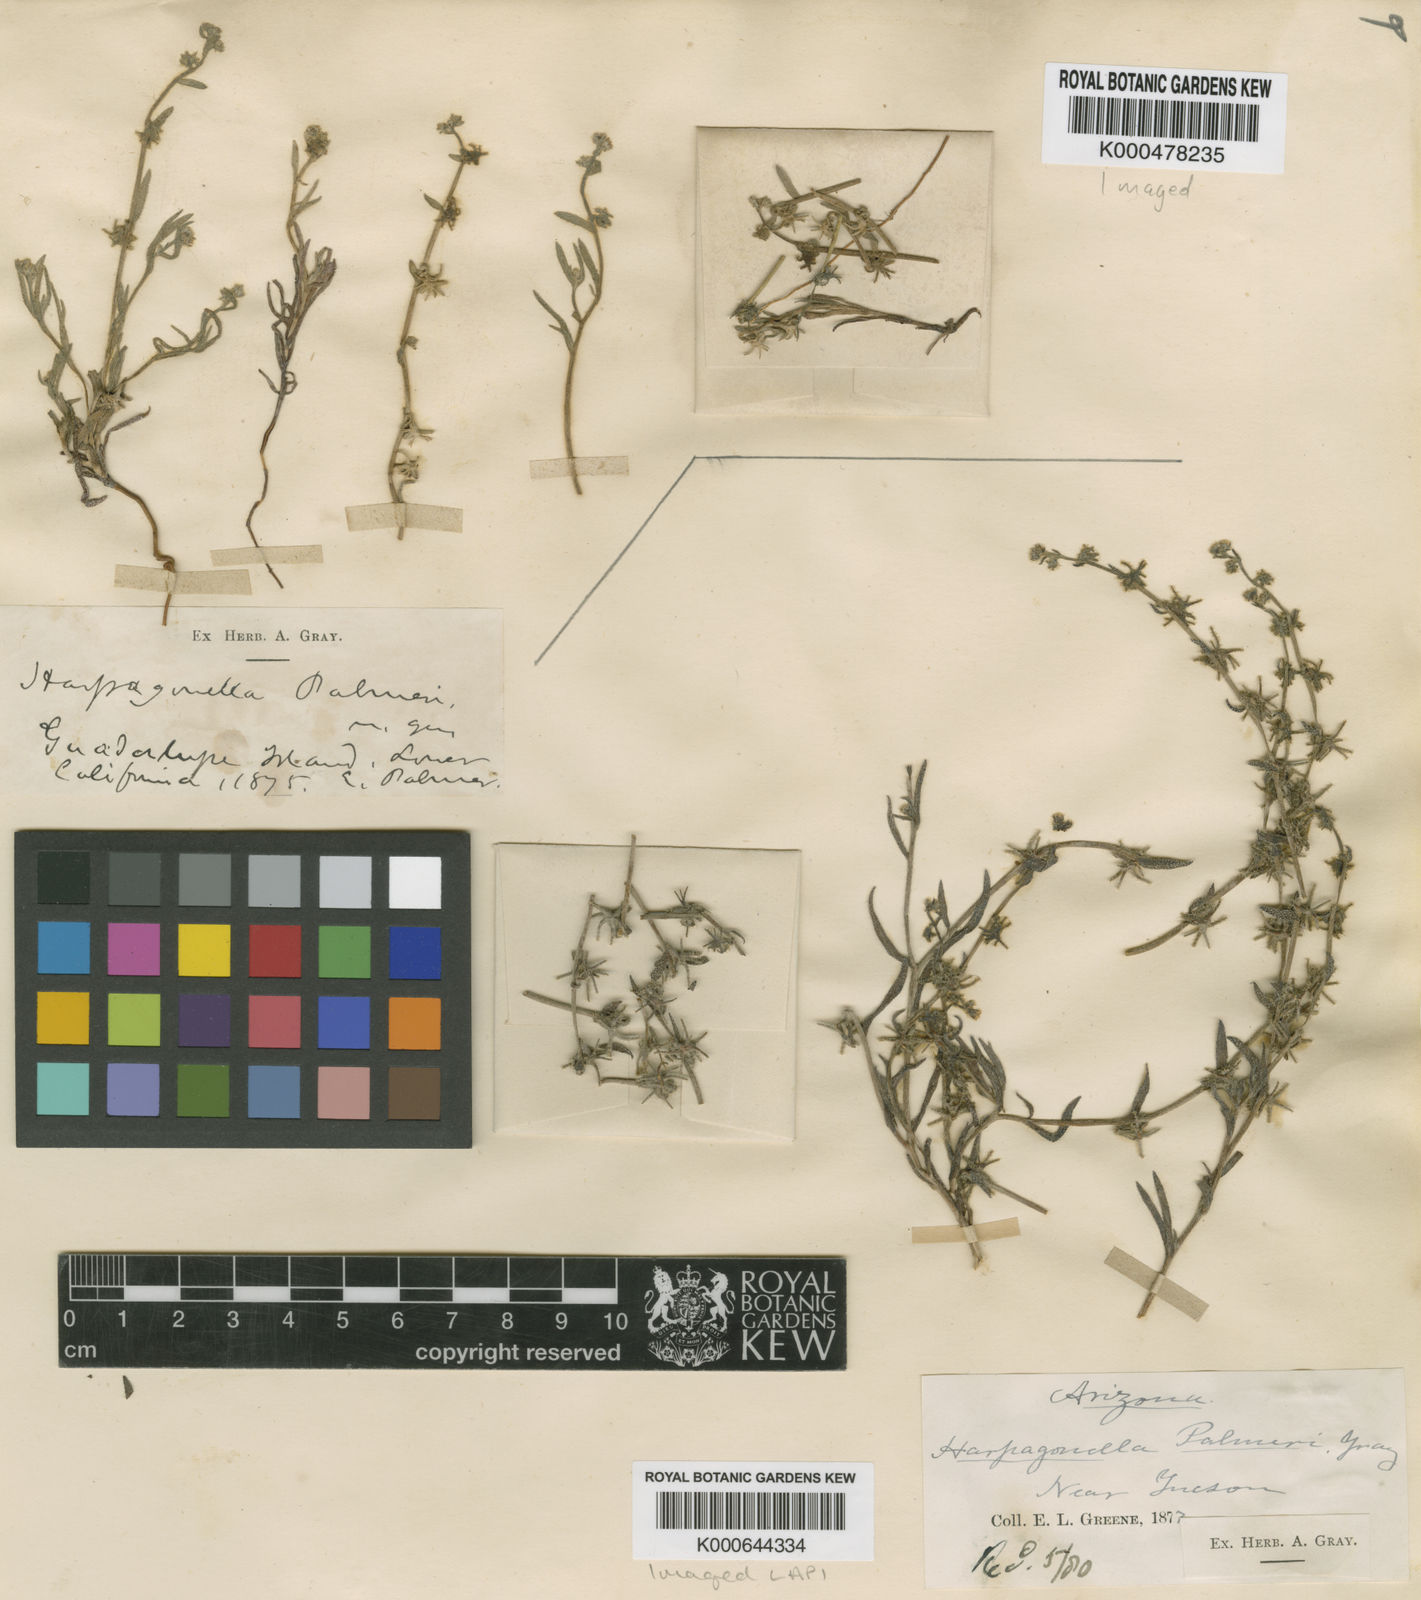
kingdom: Plantae
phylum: Tracheophyta
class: Magnoliopsida
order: Boraginales
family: Boraginaceae
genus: Harpagonella
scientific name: Harpagonella palmeri
